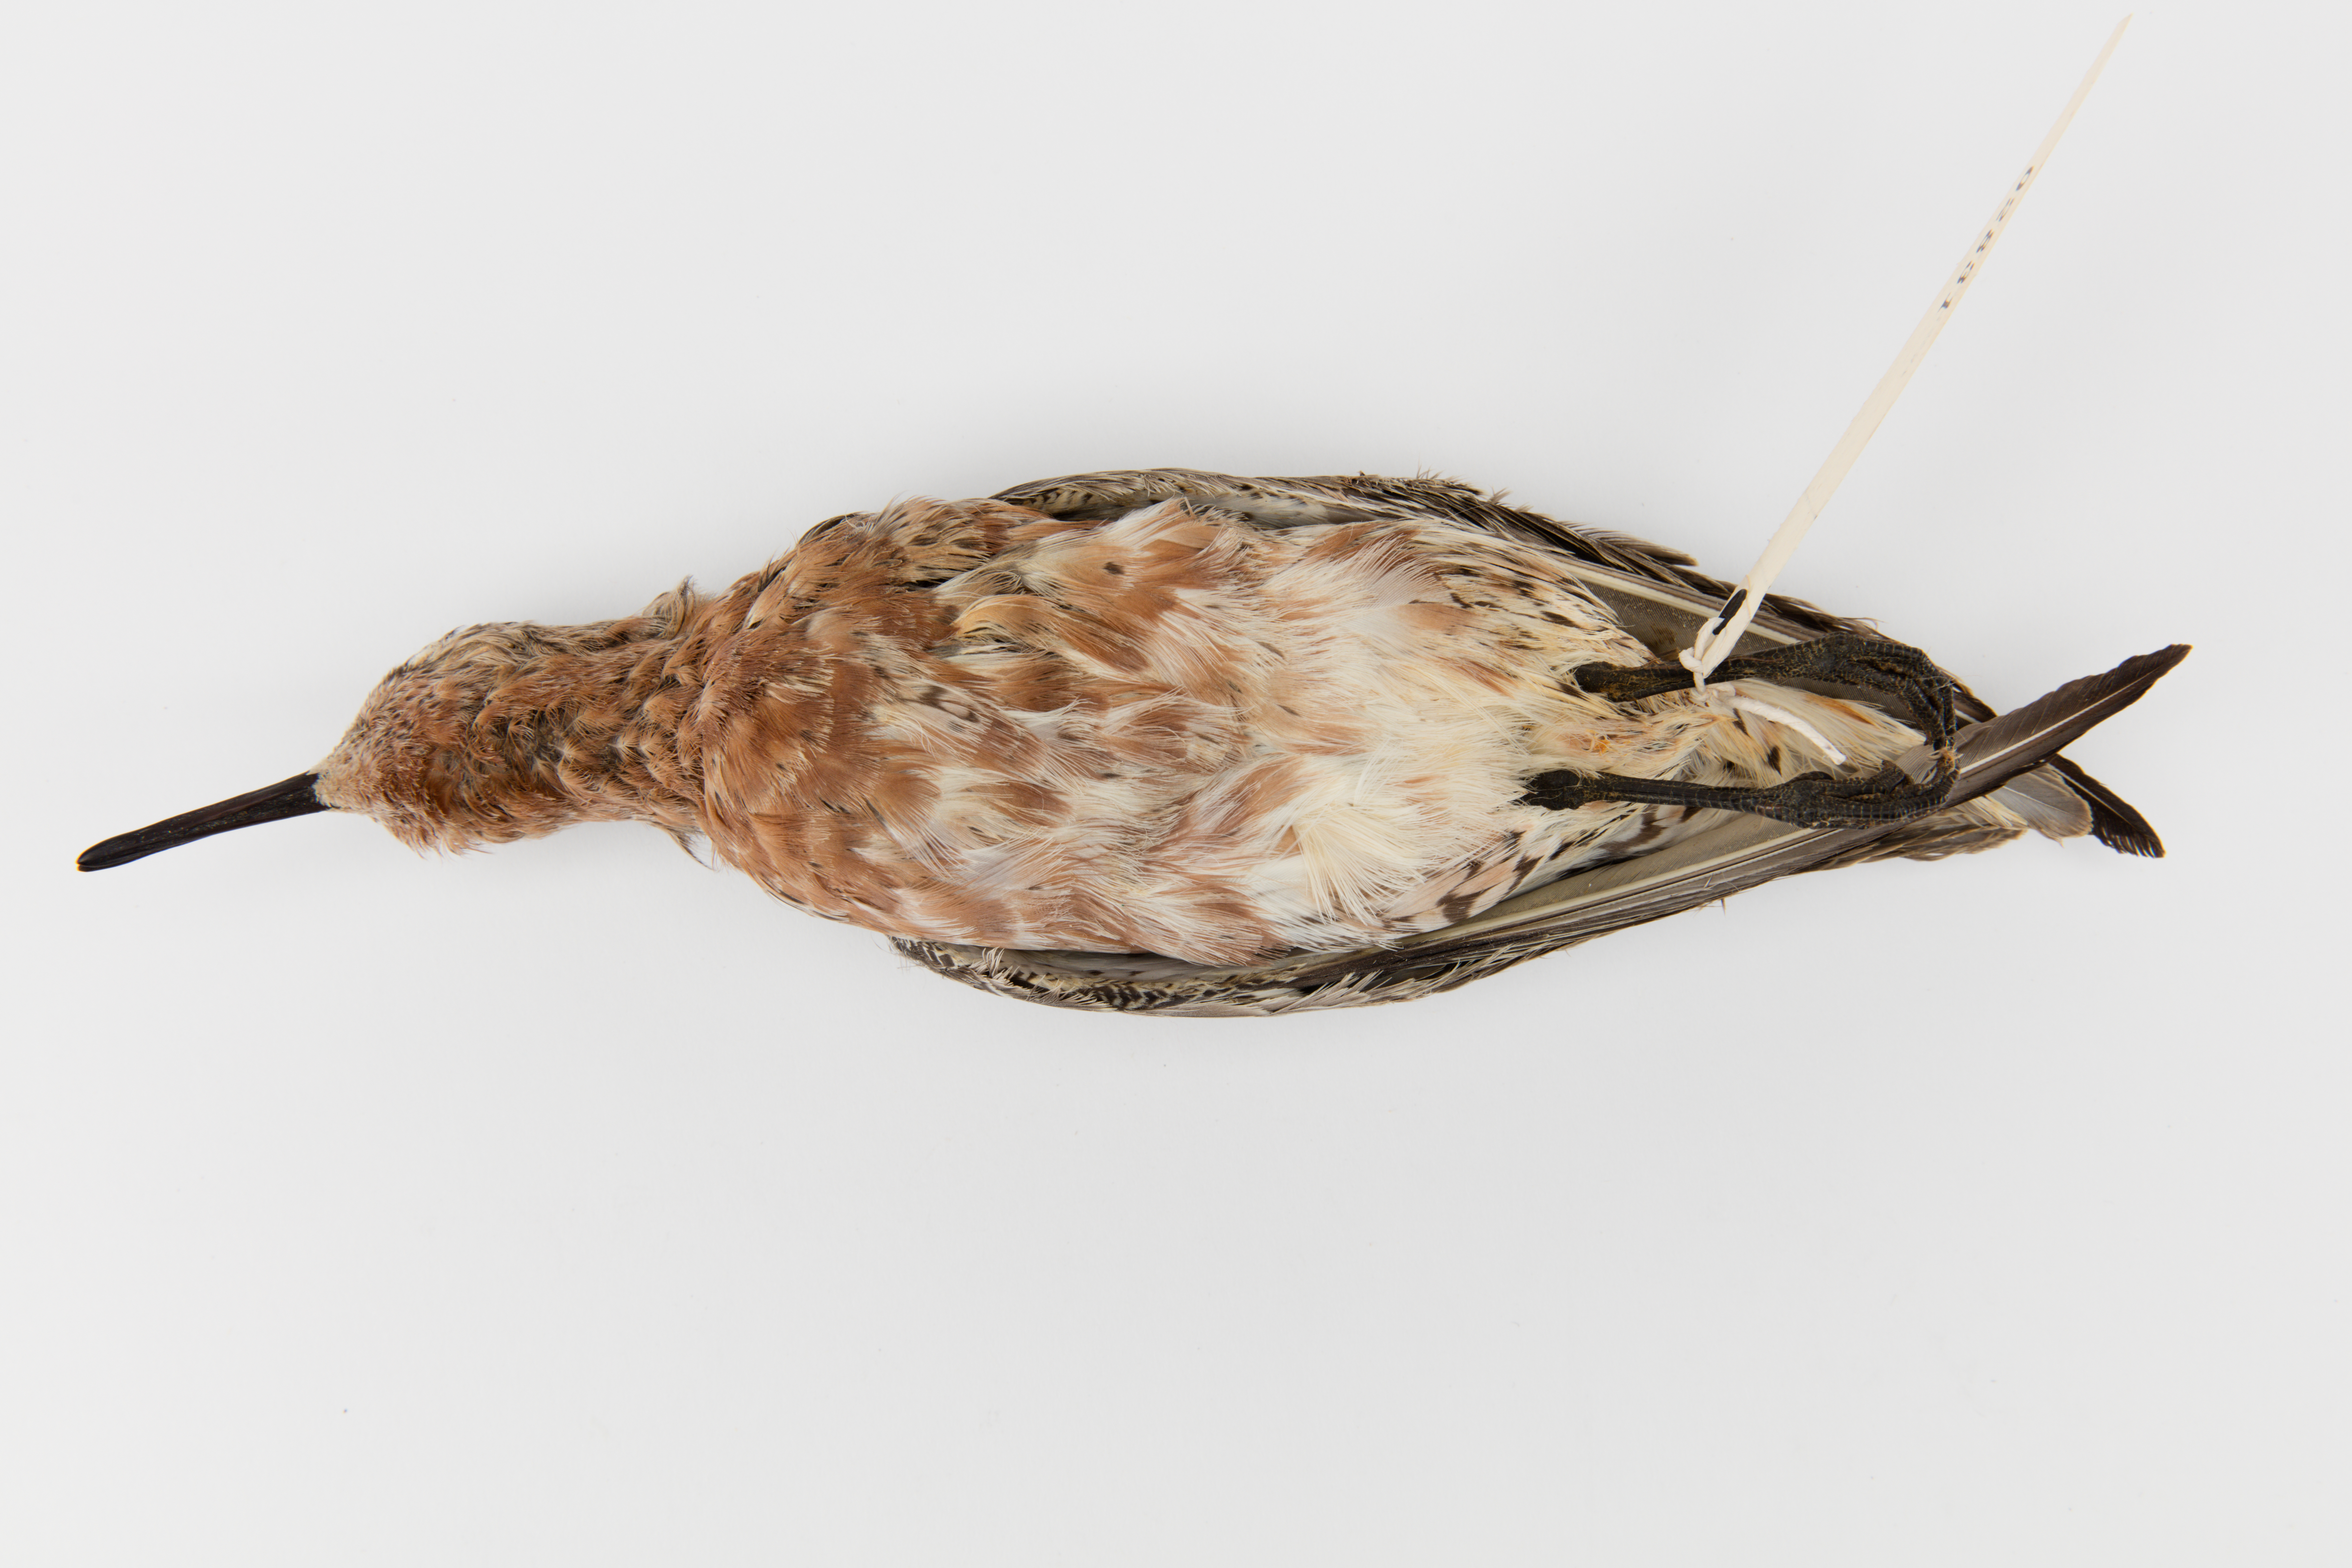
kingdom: Animalia
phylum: Chordata
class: Aves
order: Charadriiformes
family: Scolopacidae
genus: Calidris
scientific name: Calidris canutus
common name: Red knot
